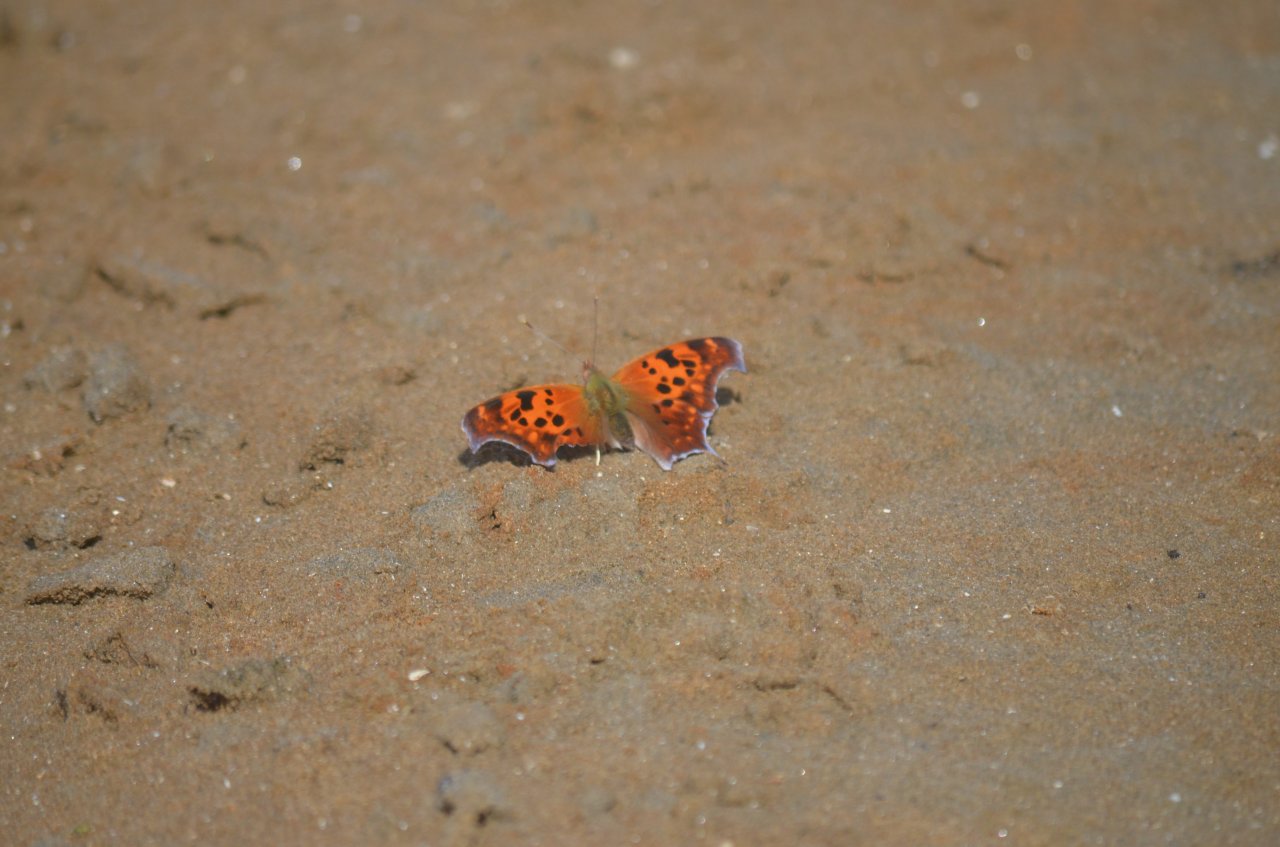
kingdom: Animalia
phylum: Arthropoda
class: Insecta
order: Lepidoptera
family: Nymphalidae
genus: Polygonia
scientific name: Polygonia interrogationis
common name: Question Mark
